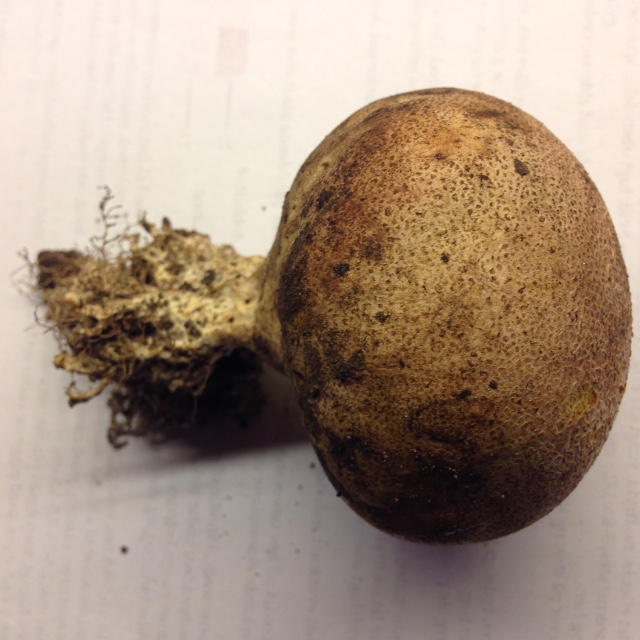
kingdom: Fungi
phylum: Basidiomycota
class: Agaricomycetes
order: Boletales
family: Sclerodermataceae
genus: Scleroderma
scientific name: Scleroderma verrucosum
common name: stilket bruskbold
